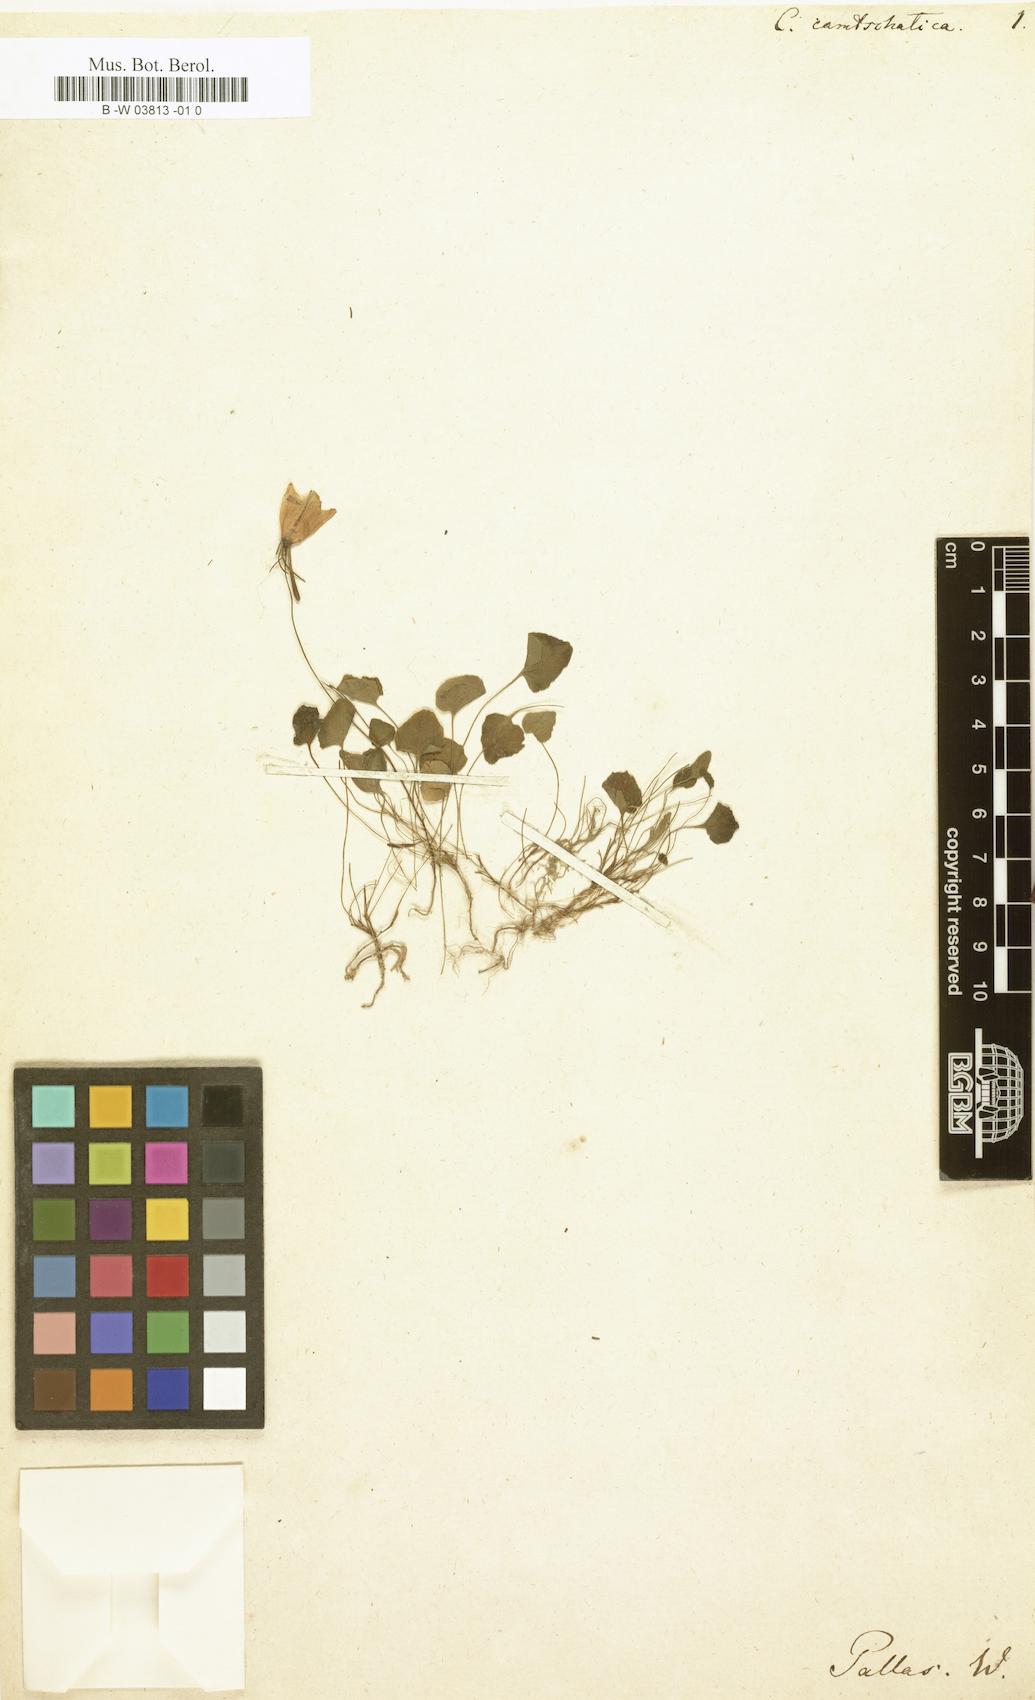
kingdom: Plantae
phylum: Tracheophyta
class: Magnoliopsida
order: Asterales
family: Campanulaceae
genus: Campanula
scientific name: Campanula camtschatica
